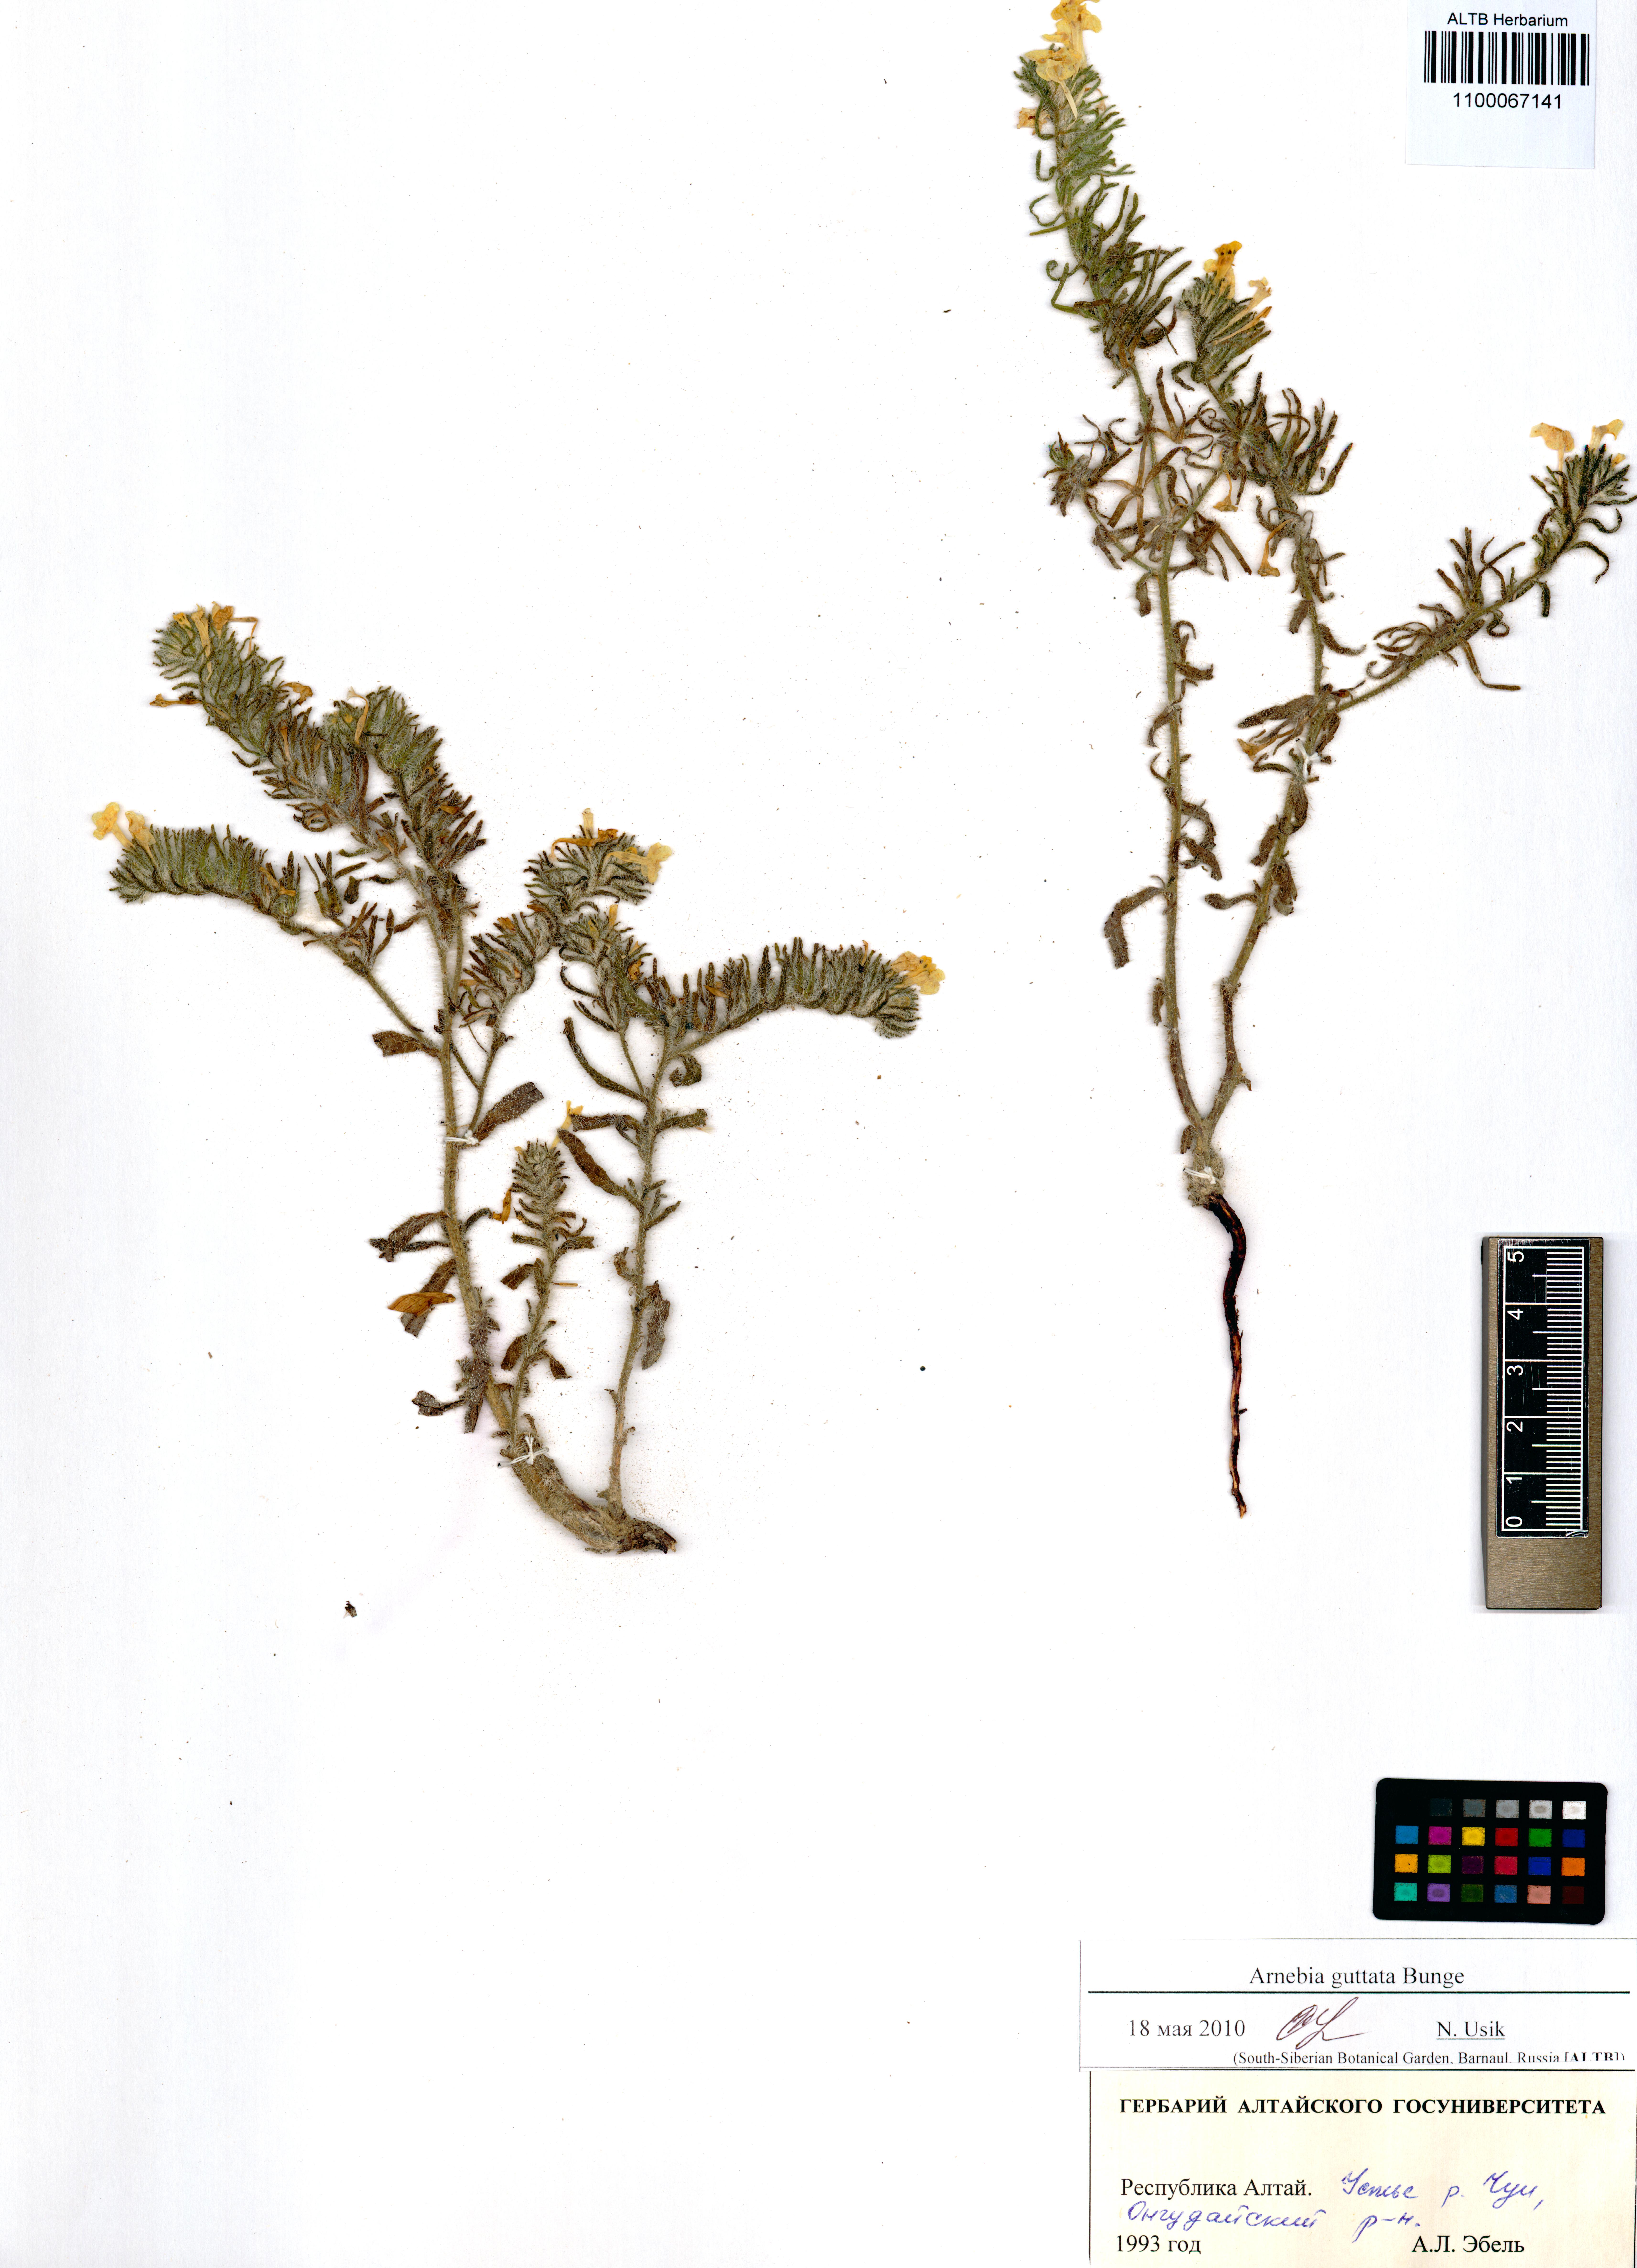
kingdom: Plantae
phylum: Tracheophyta
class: Magnoliopsida
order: Boraginales
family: Boraginaceae
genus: Arnebia
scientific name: Arnebia guttata
